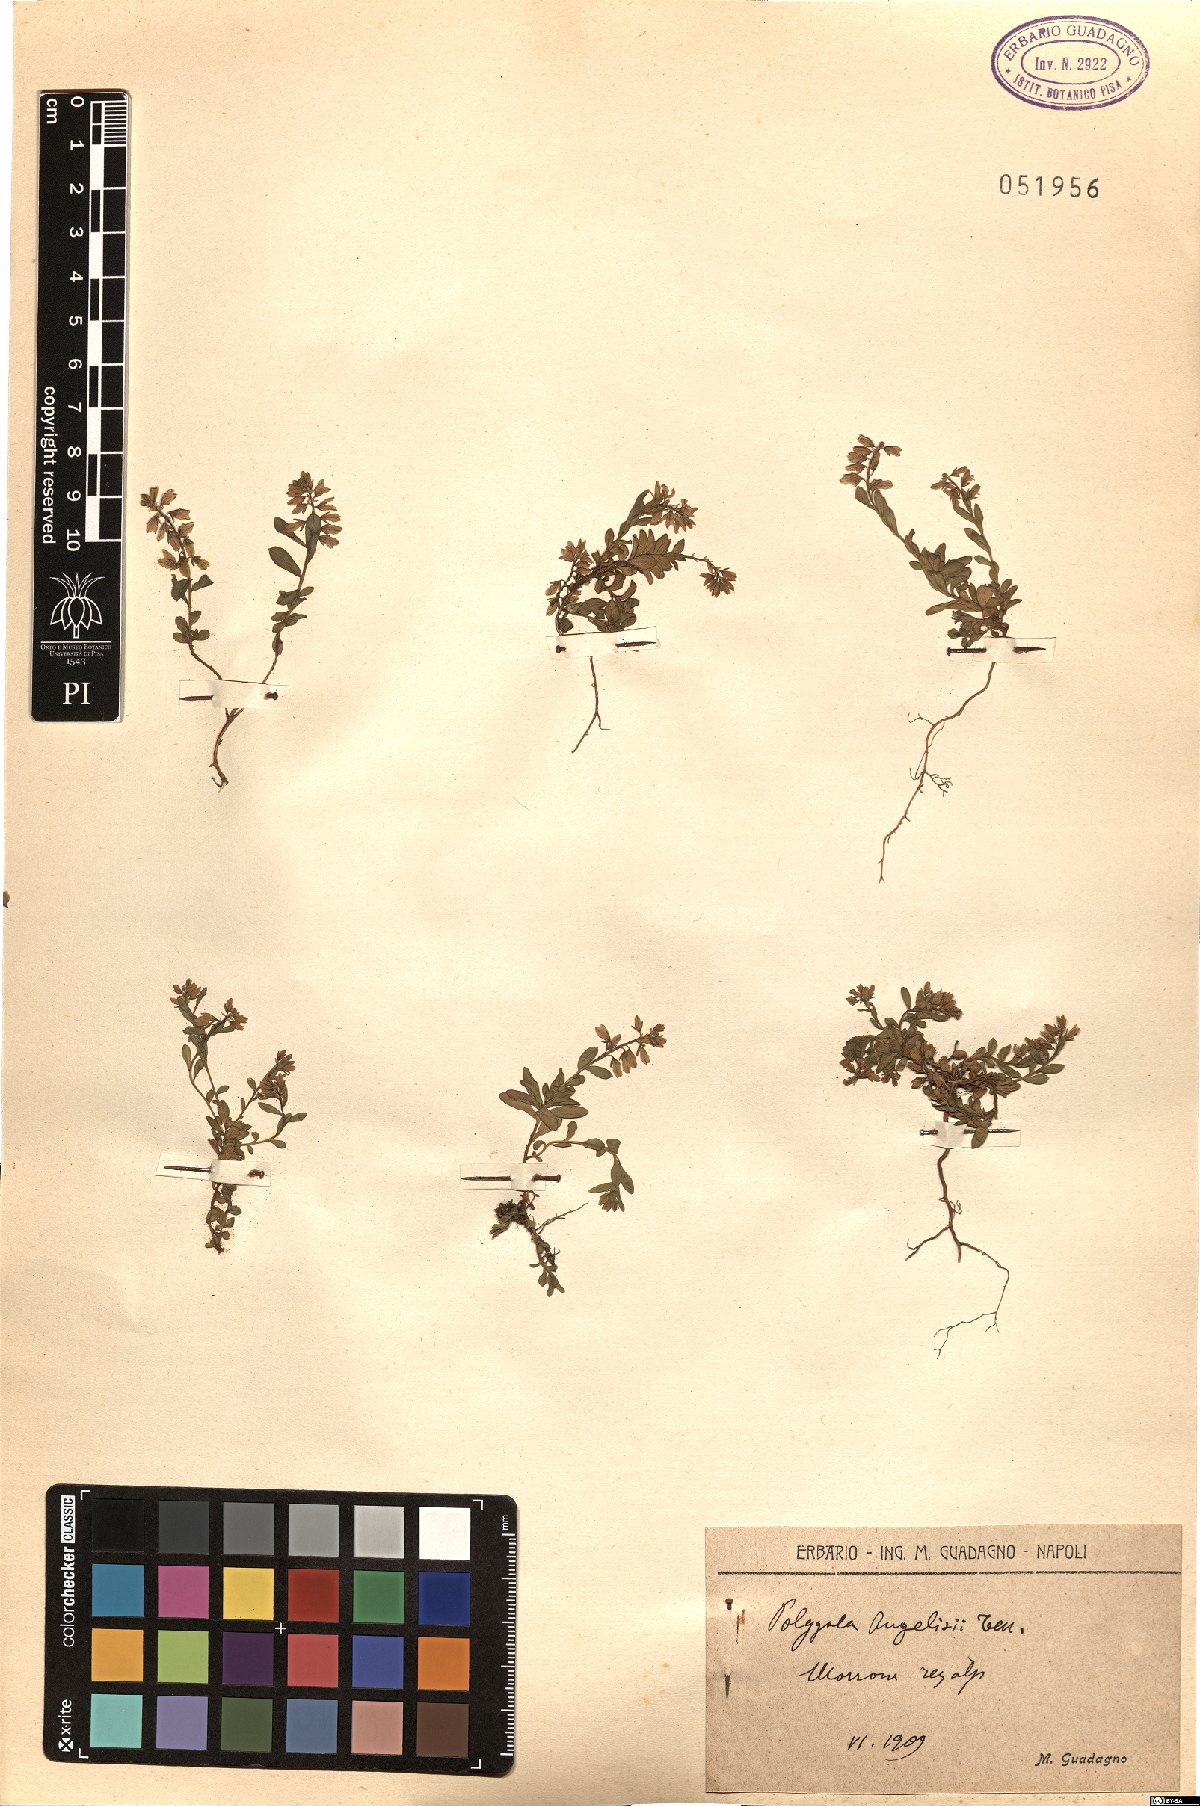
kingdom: Plantae
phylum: Tracheophyta
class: Magnoliopsida
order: Fabales
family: Polygalaceae
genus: Polygala
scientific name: Polygala angelisia
